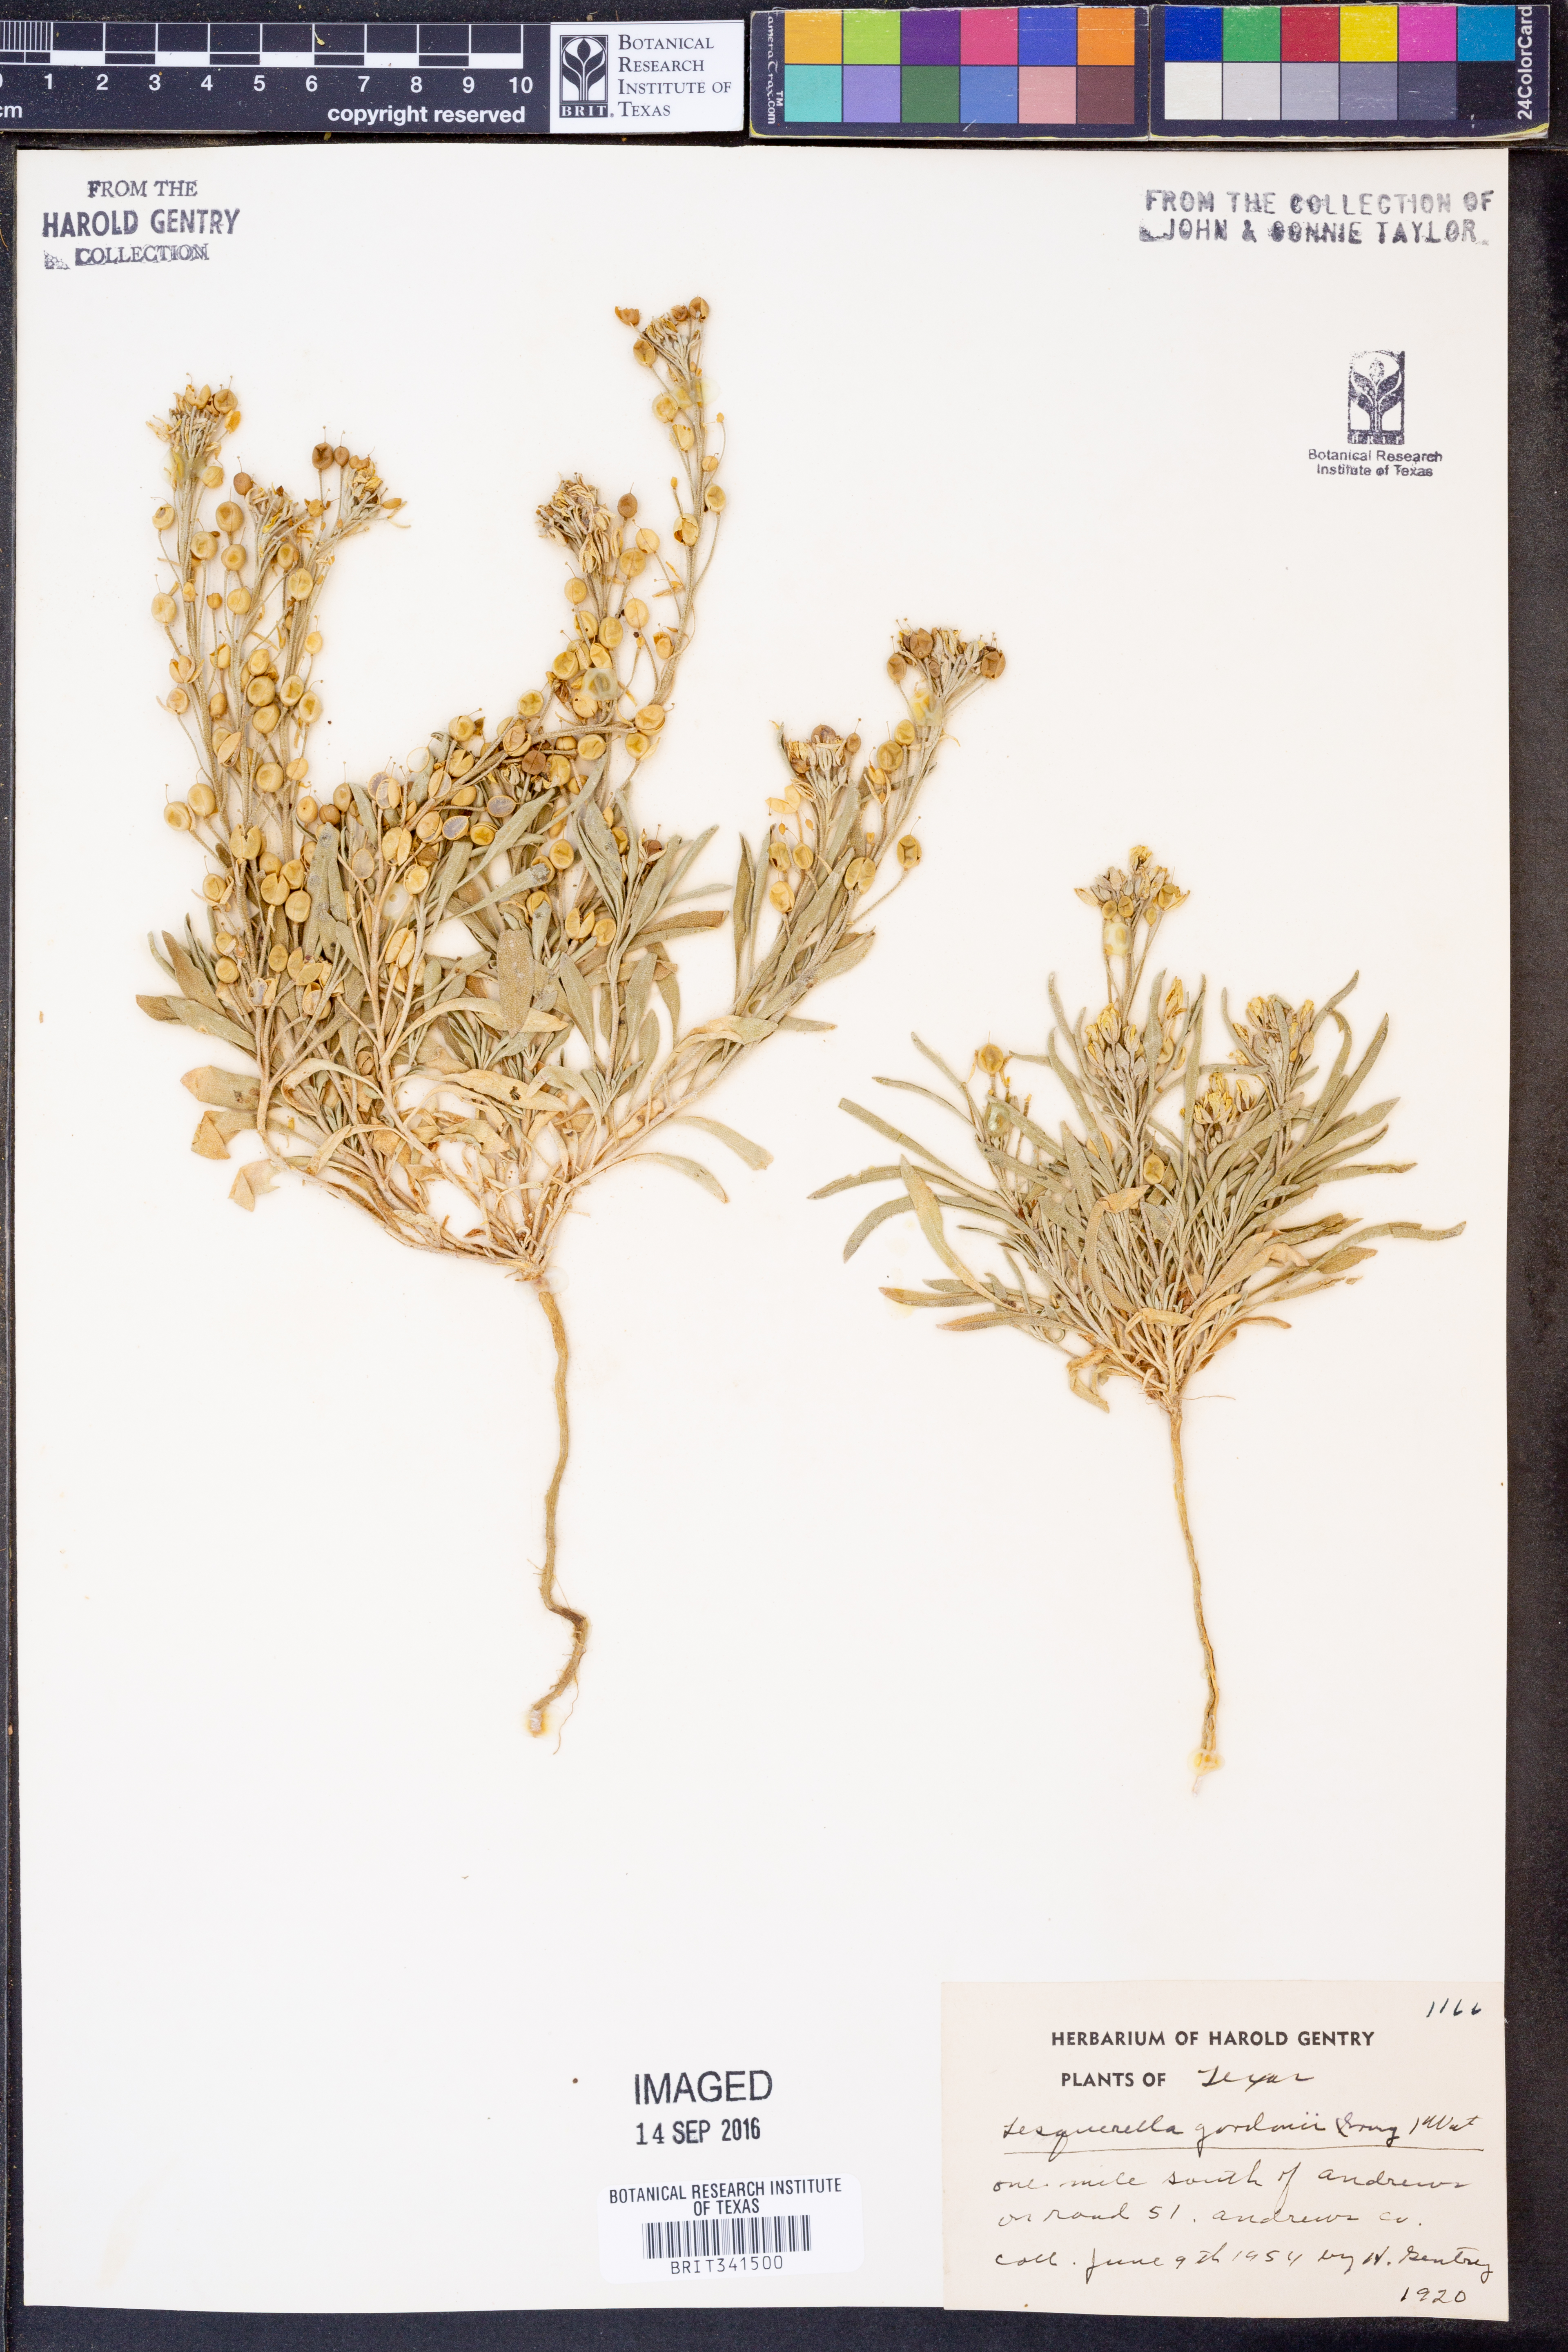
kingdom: Plantae
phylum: Tracheophyta
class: Magnoliopsida
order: Brassicales
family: Brassicaceae
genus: Physaria
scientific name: Physaria gordonii
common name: Gordon's bladderpod
